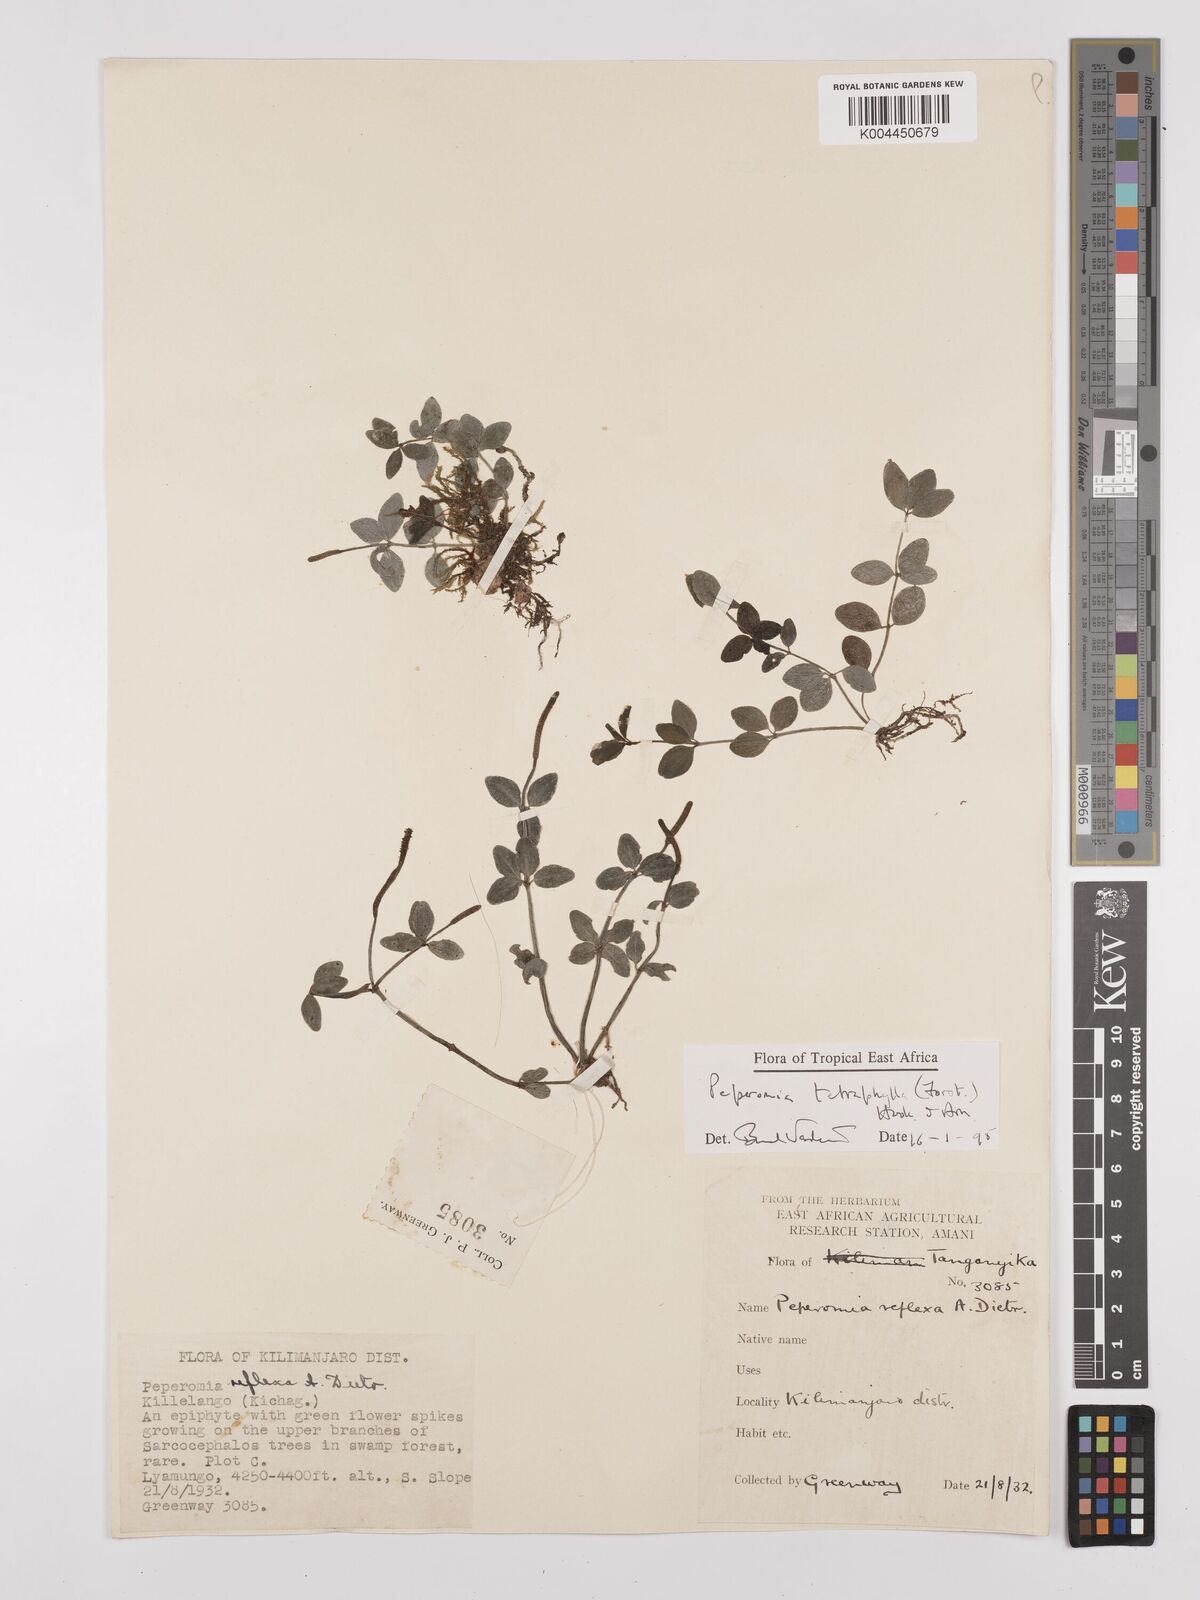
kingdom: Plantae
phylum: Tracheophyta
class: Magnoliopsida
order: Piperales
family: Piperaceae
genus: Peperomia
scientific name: Peperomia tetraphylla
